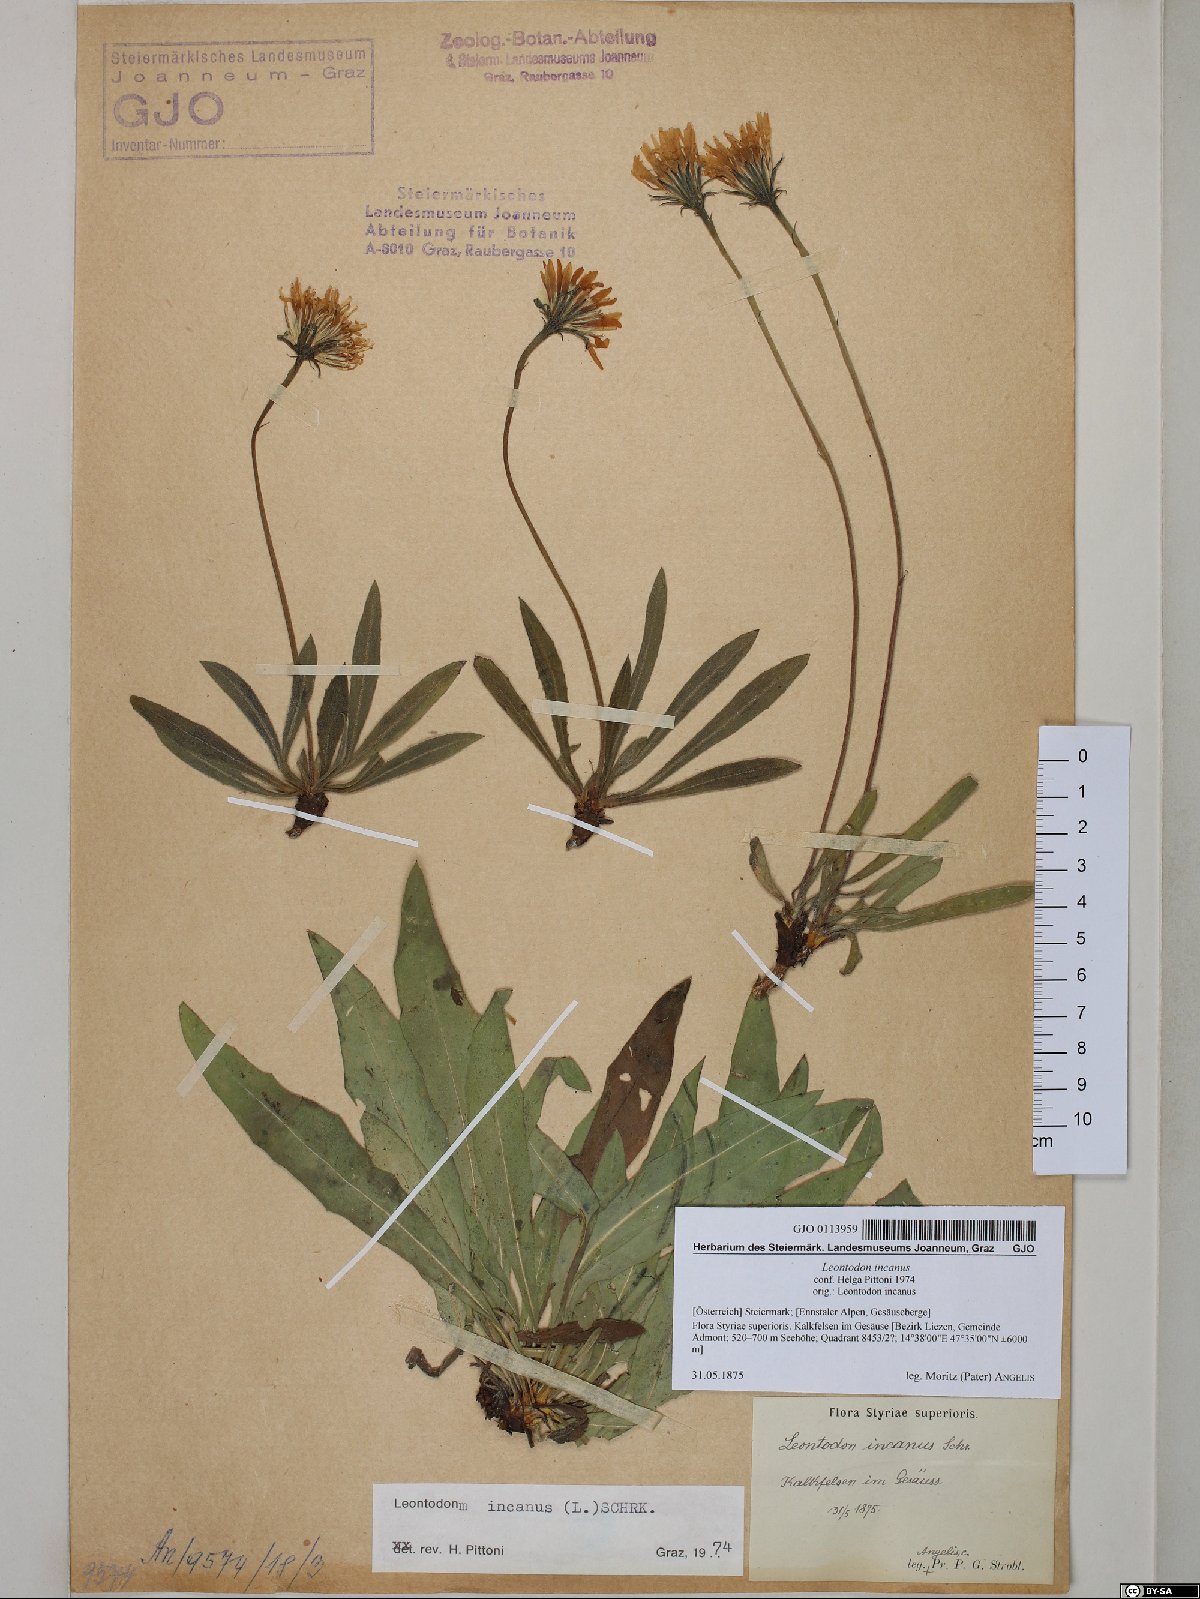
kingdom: Plantae
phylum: Tracheophyta
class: Magnoliopsida
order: Asterales
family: Asteraceae
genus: Leontodon
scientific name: Leontodon incanus
